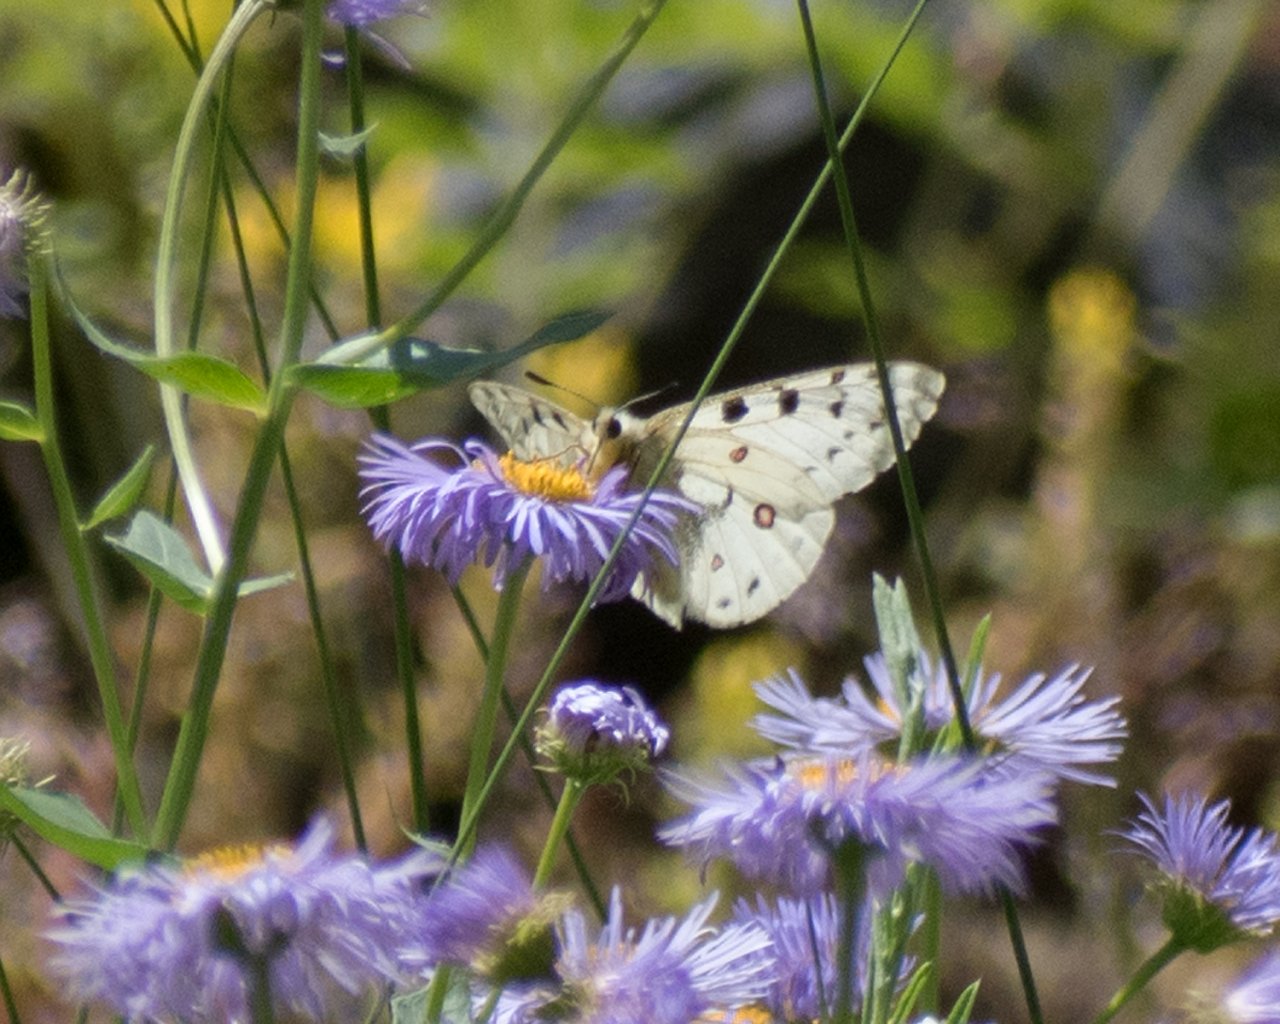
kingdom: Animalia
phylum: Arthropoda
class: Insecta
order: Lepidoptera
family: Papilionidae
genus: Parnassius
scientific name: Parnassius smintheus
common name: Rocky Mountain Parnassian
